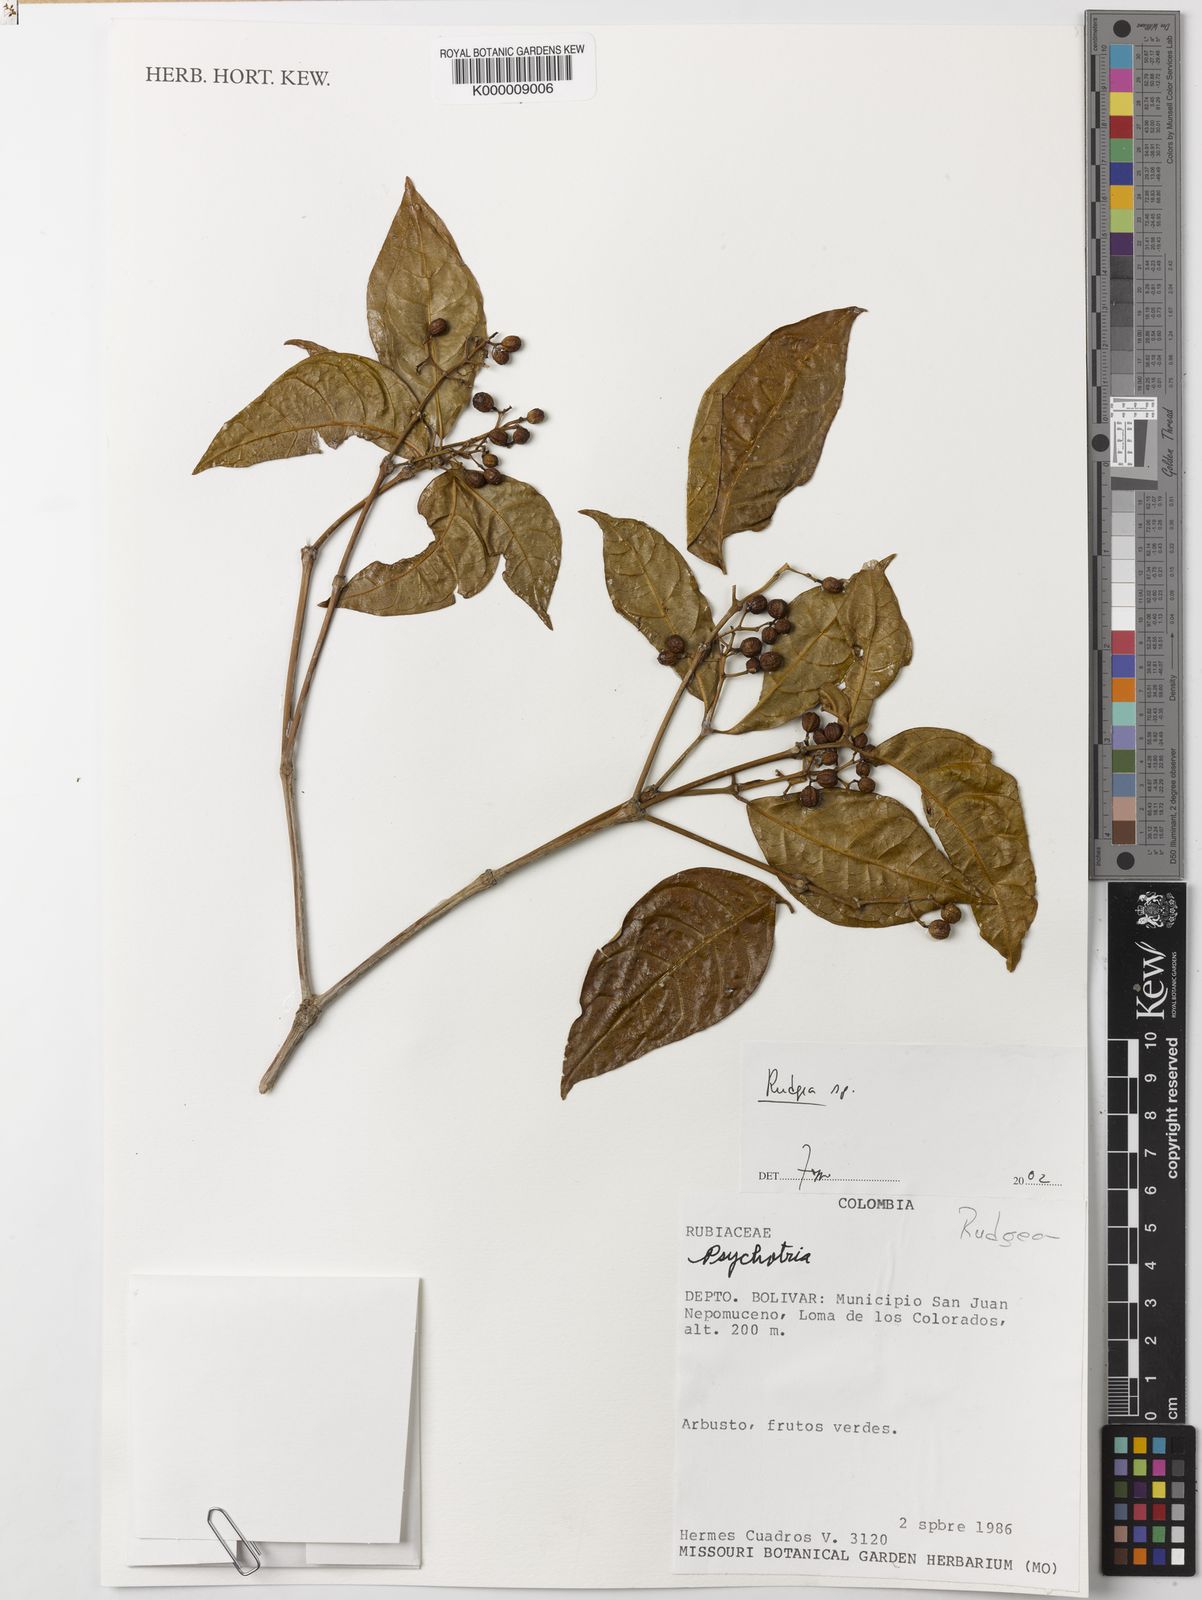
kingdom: Plantae
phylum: Tracheophyta
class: Magnoliopsida
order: Gentianales
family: Rubiaceae
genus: Rudgea
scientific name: Rudgea
